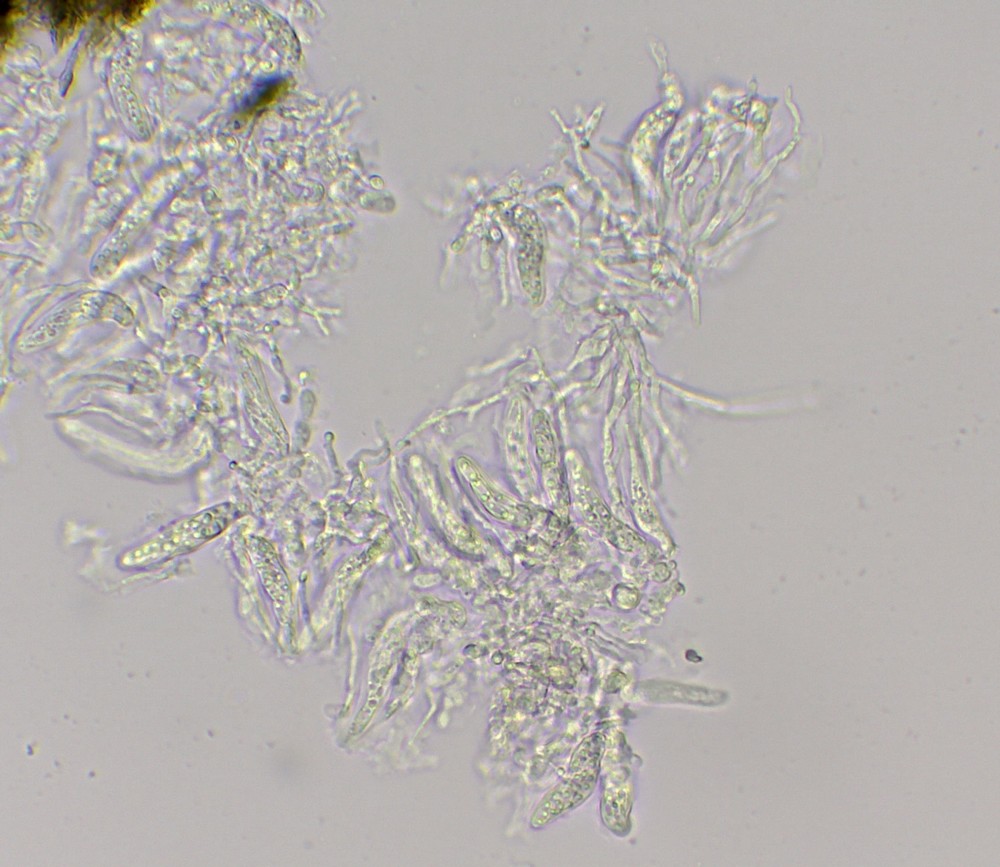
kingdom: Fungi
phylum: Ascomycota
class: Dothideomycetes
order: Microthyriales
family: Micropeltidaceae
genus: Stomiopeltis
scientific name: Stomiopeltis juniperina
